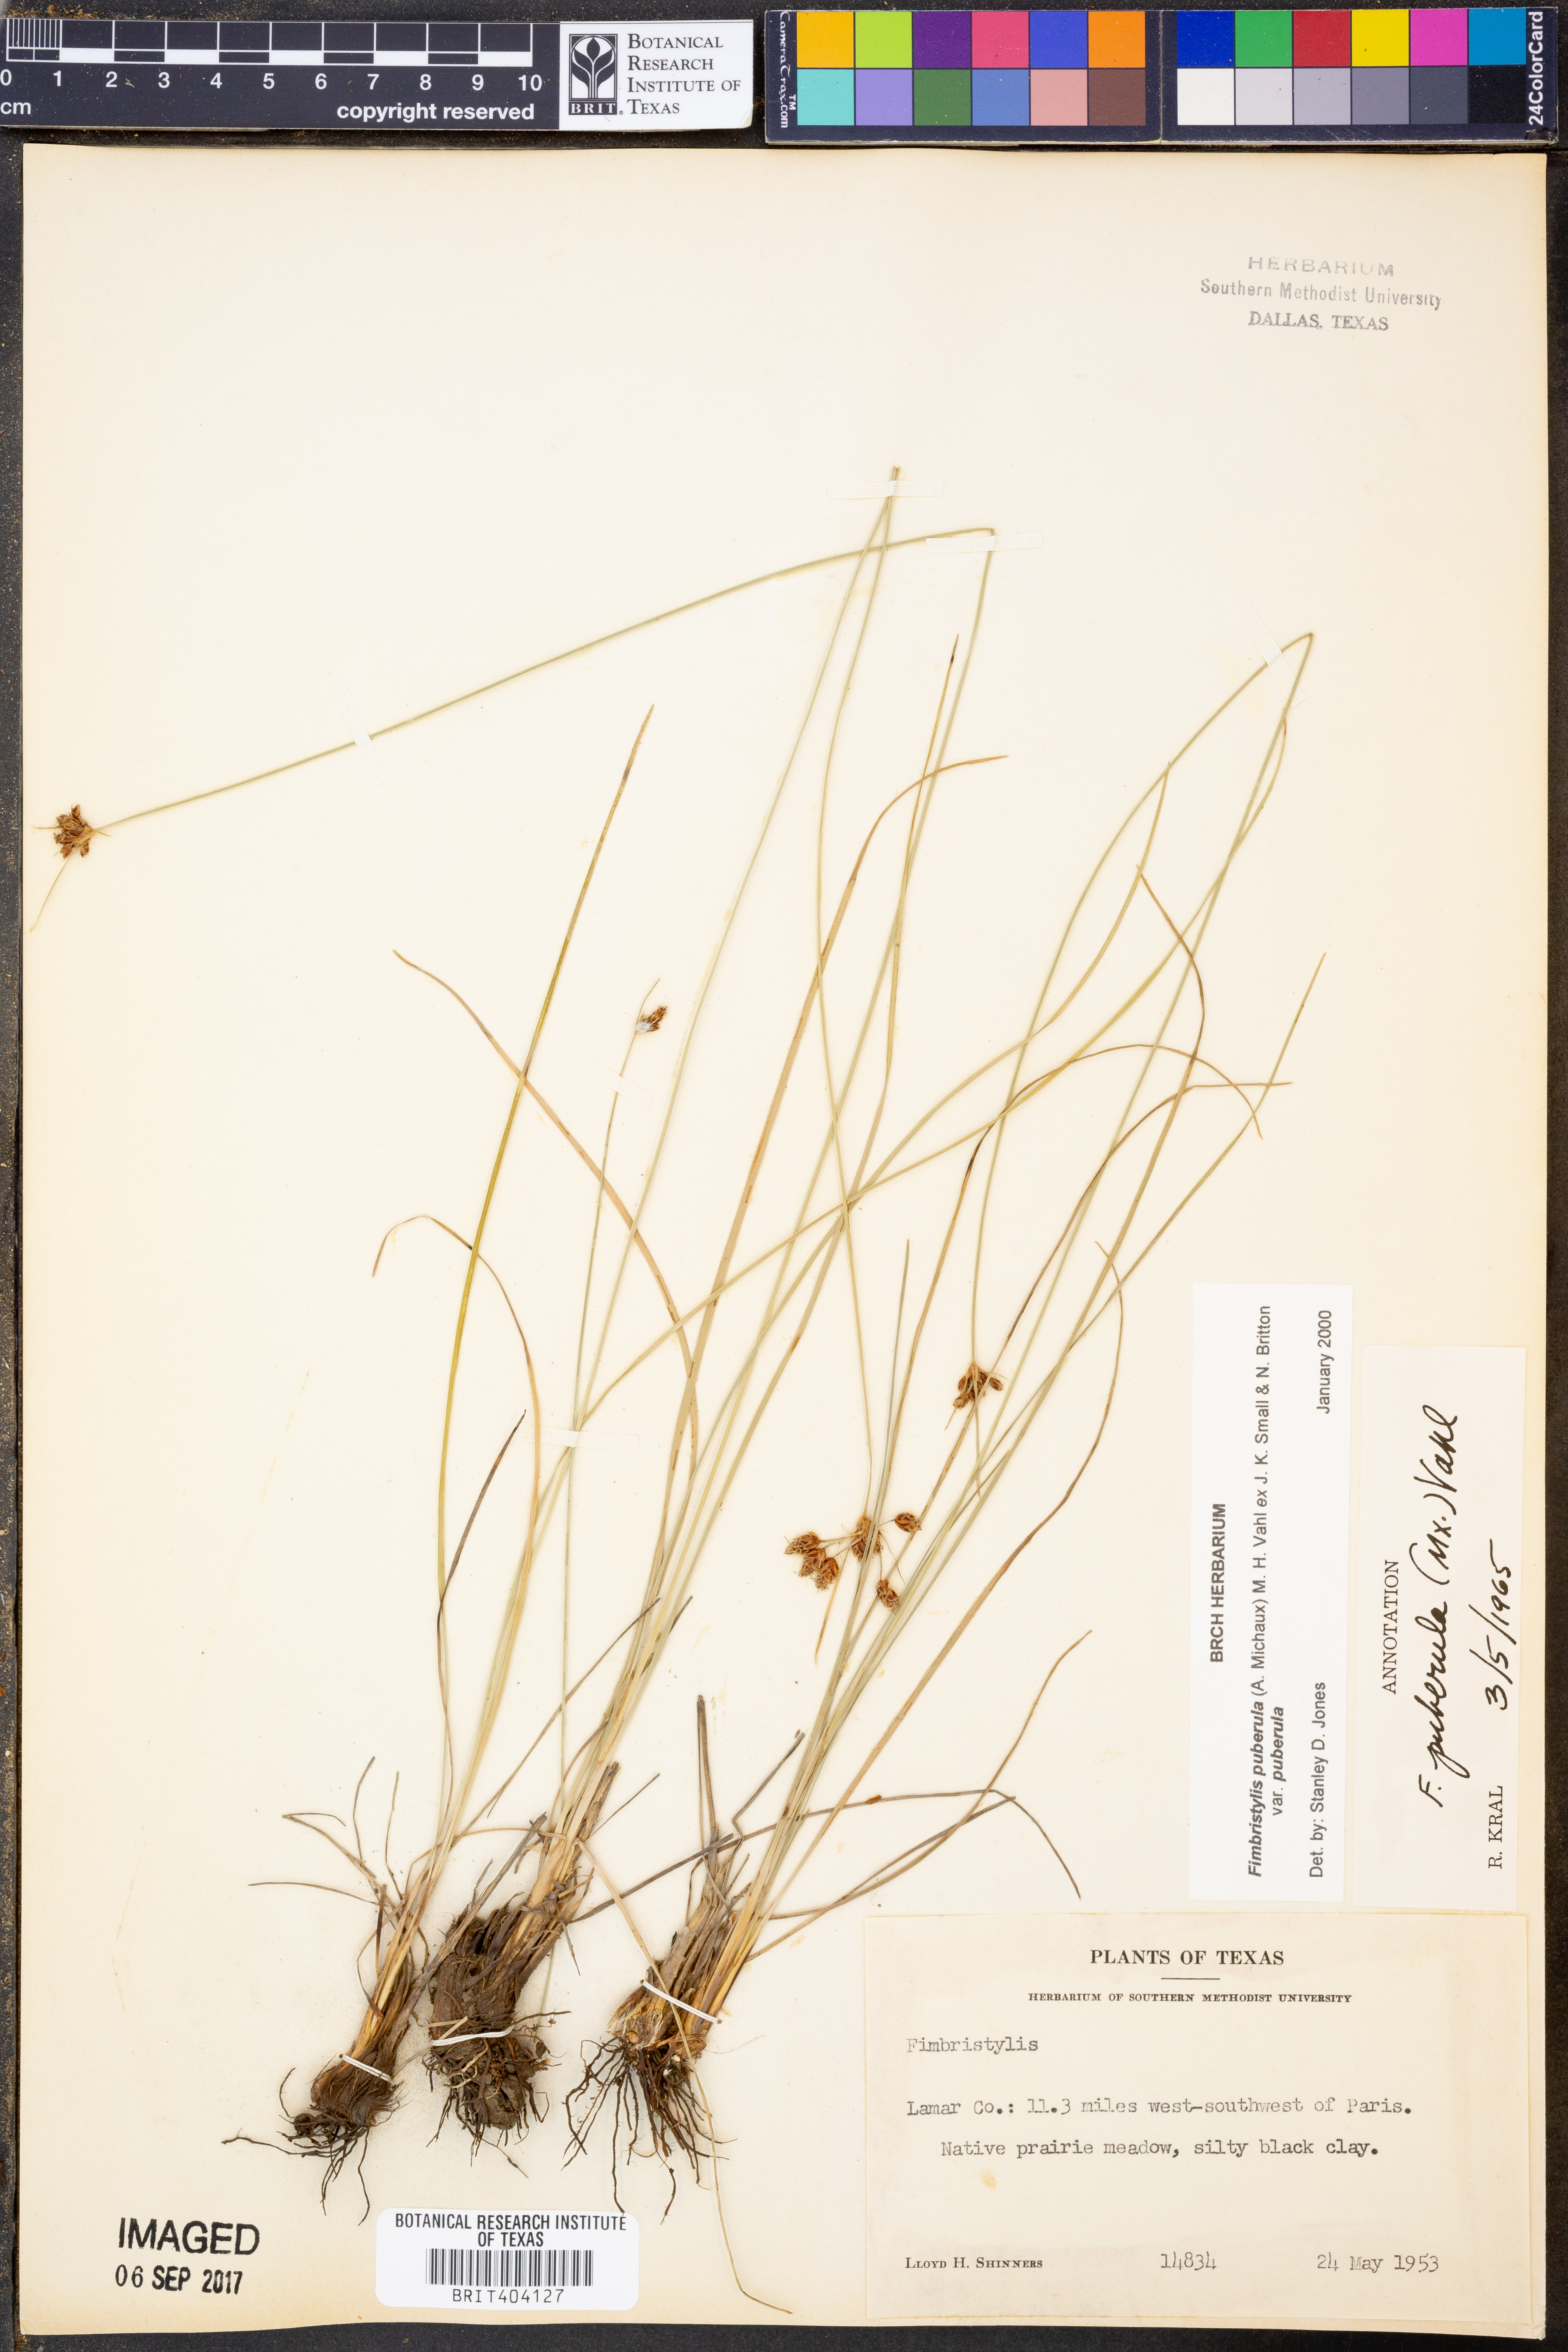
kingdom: Plantae
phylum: Tracheophyta
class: Liliopsida
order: Poales
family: Cyperaceae
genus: Fimbristylis
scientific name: Fimbristylis puberula
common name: Hairy fimbristylis
